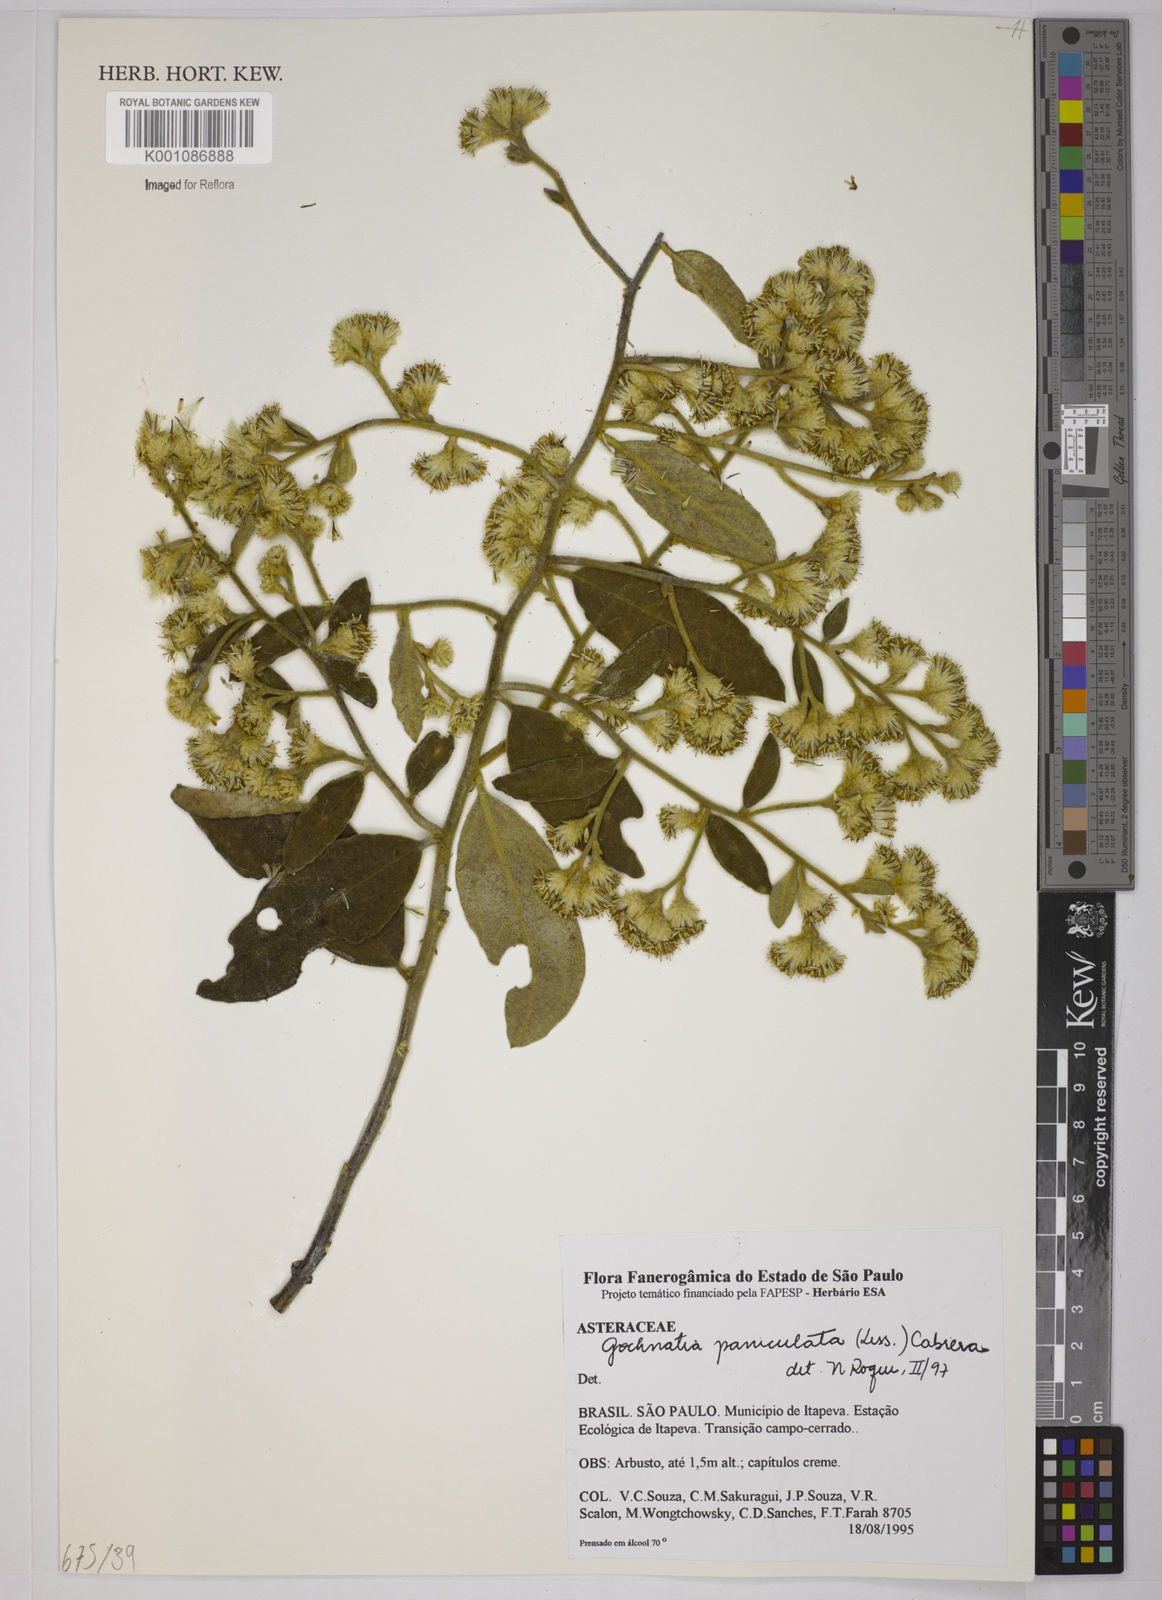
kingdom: Plantae
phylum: Tracheophyta
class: Magnoliopsida
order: Asterales
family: Asteraceae
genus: Moquiniastrum
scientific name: Moquiniastrum paniculatum
